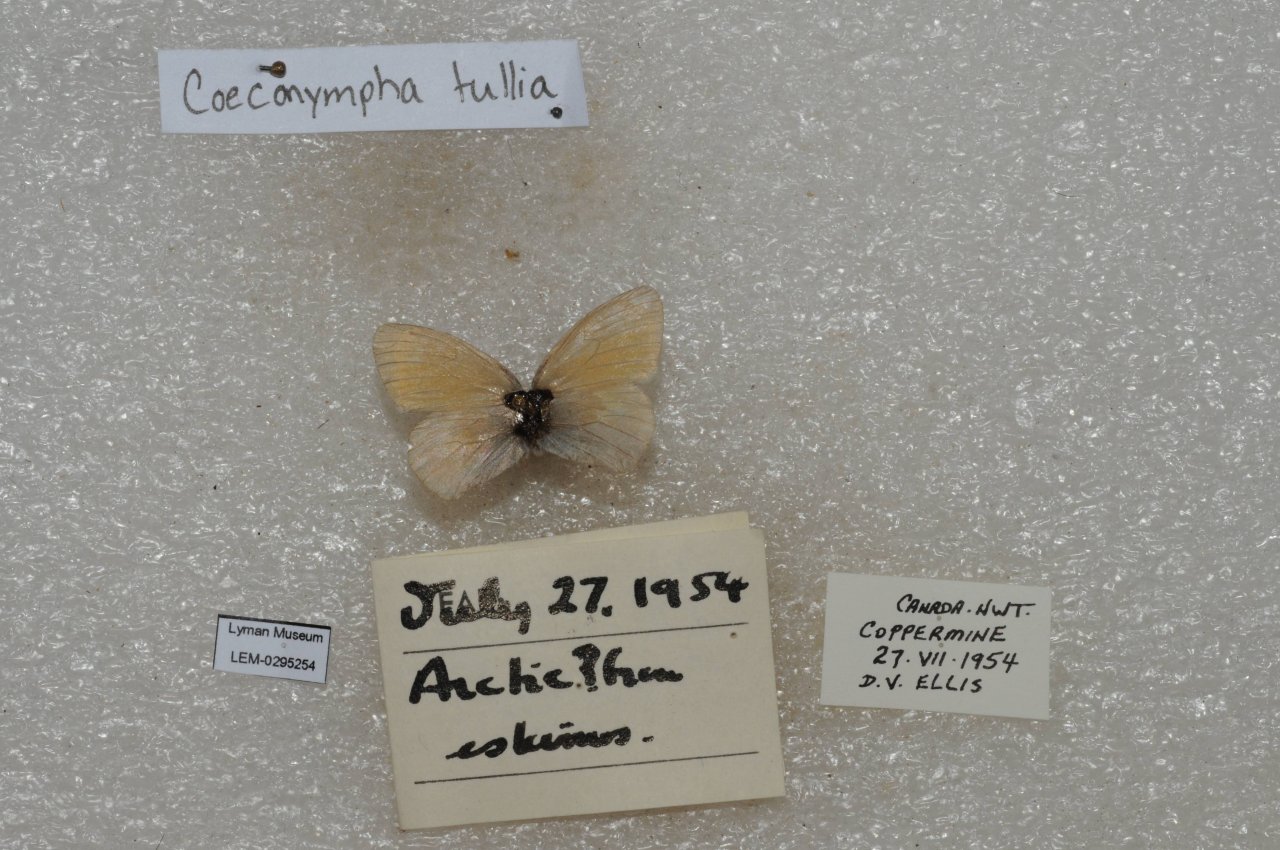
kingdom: Animalia
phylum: Arthropoda
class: Insecta
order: Lepidoptera
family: Nymphalidae
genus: Coenonympha
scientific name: Coenonympha tullia
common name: Large Heath
